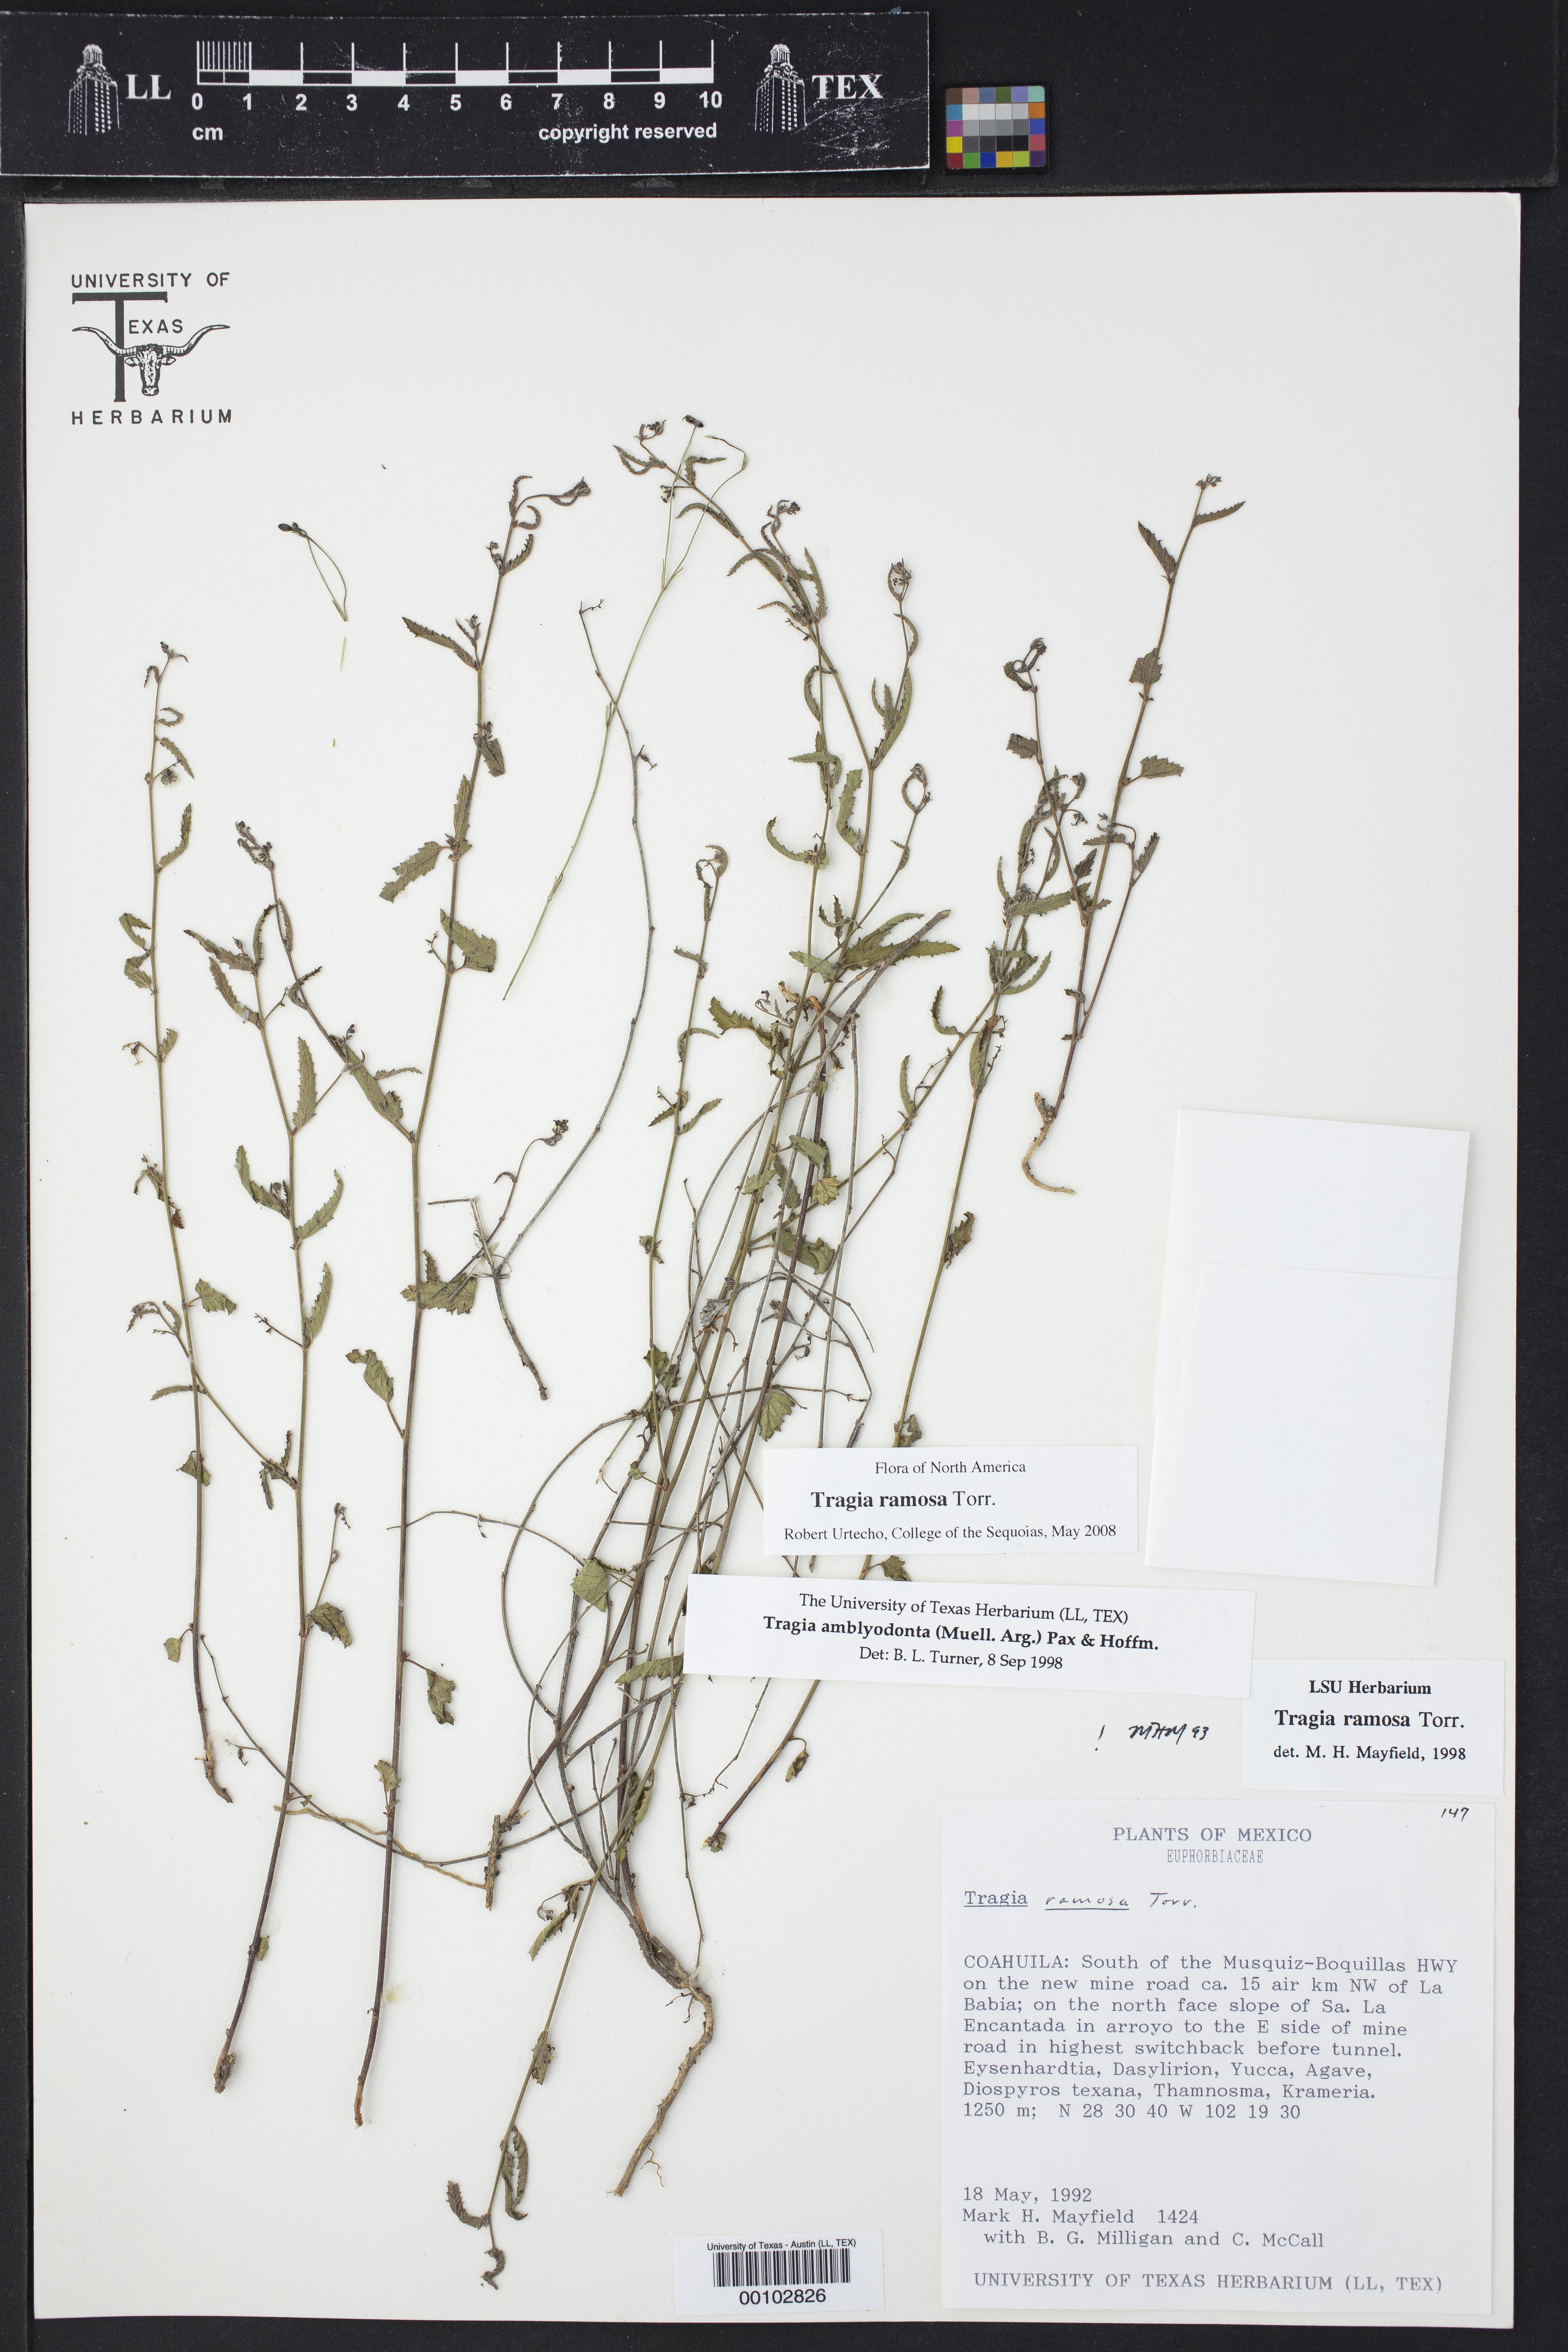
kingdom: Plantae
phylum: Tracheophyta
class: Magnoliopsida
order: Malpighiales
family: Euphorbiaceae
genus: Tragia
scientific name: Tragia amblyodonta
